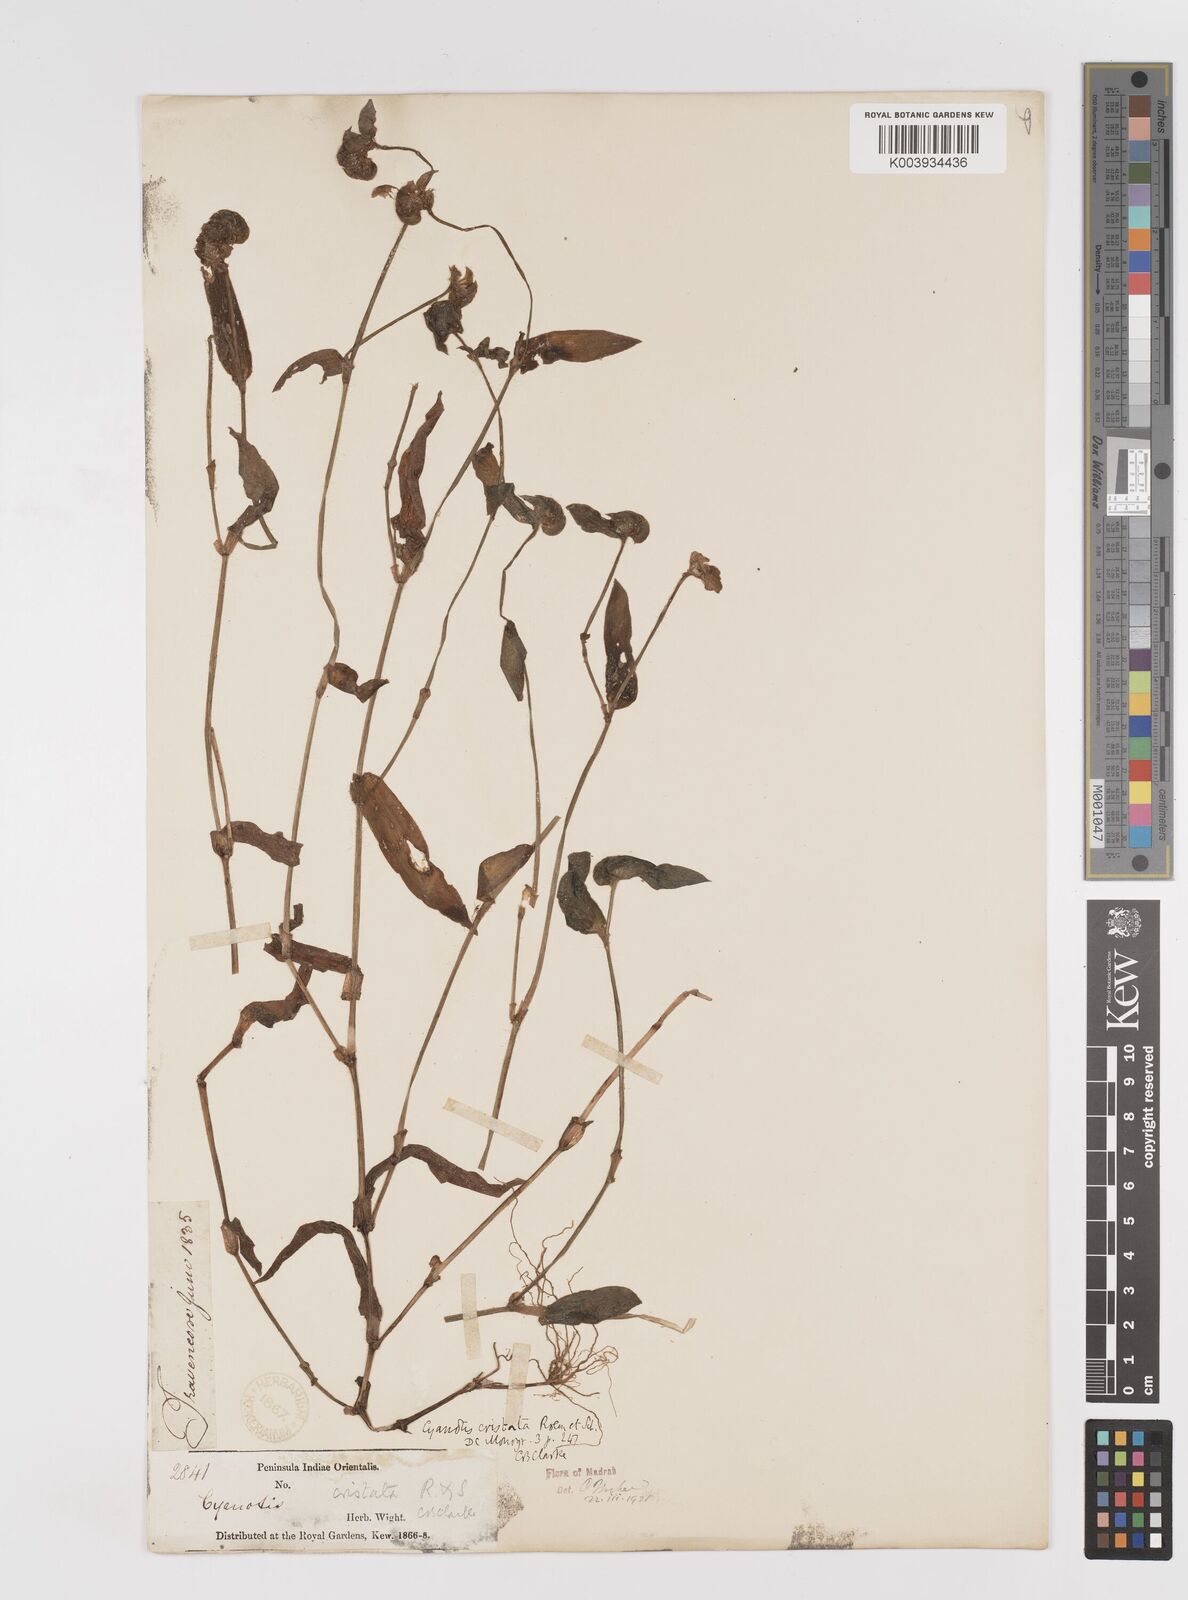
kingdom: Plantae
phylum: Tracheophyta
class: Liliopsida
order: Commelinales
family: Commelinaceae
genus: Cyanotis
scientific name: Cyanotis cristata
